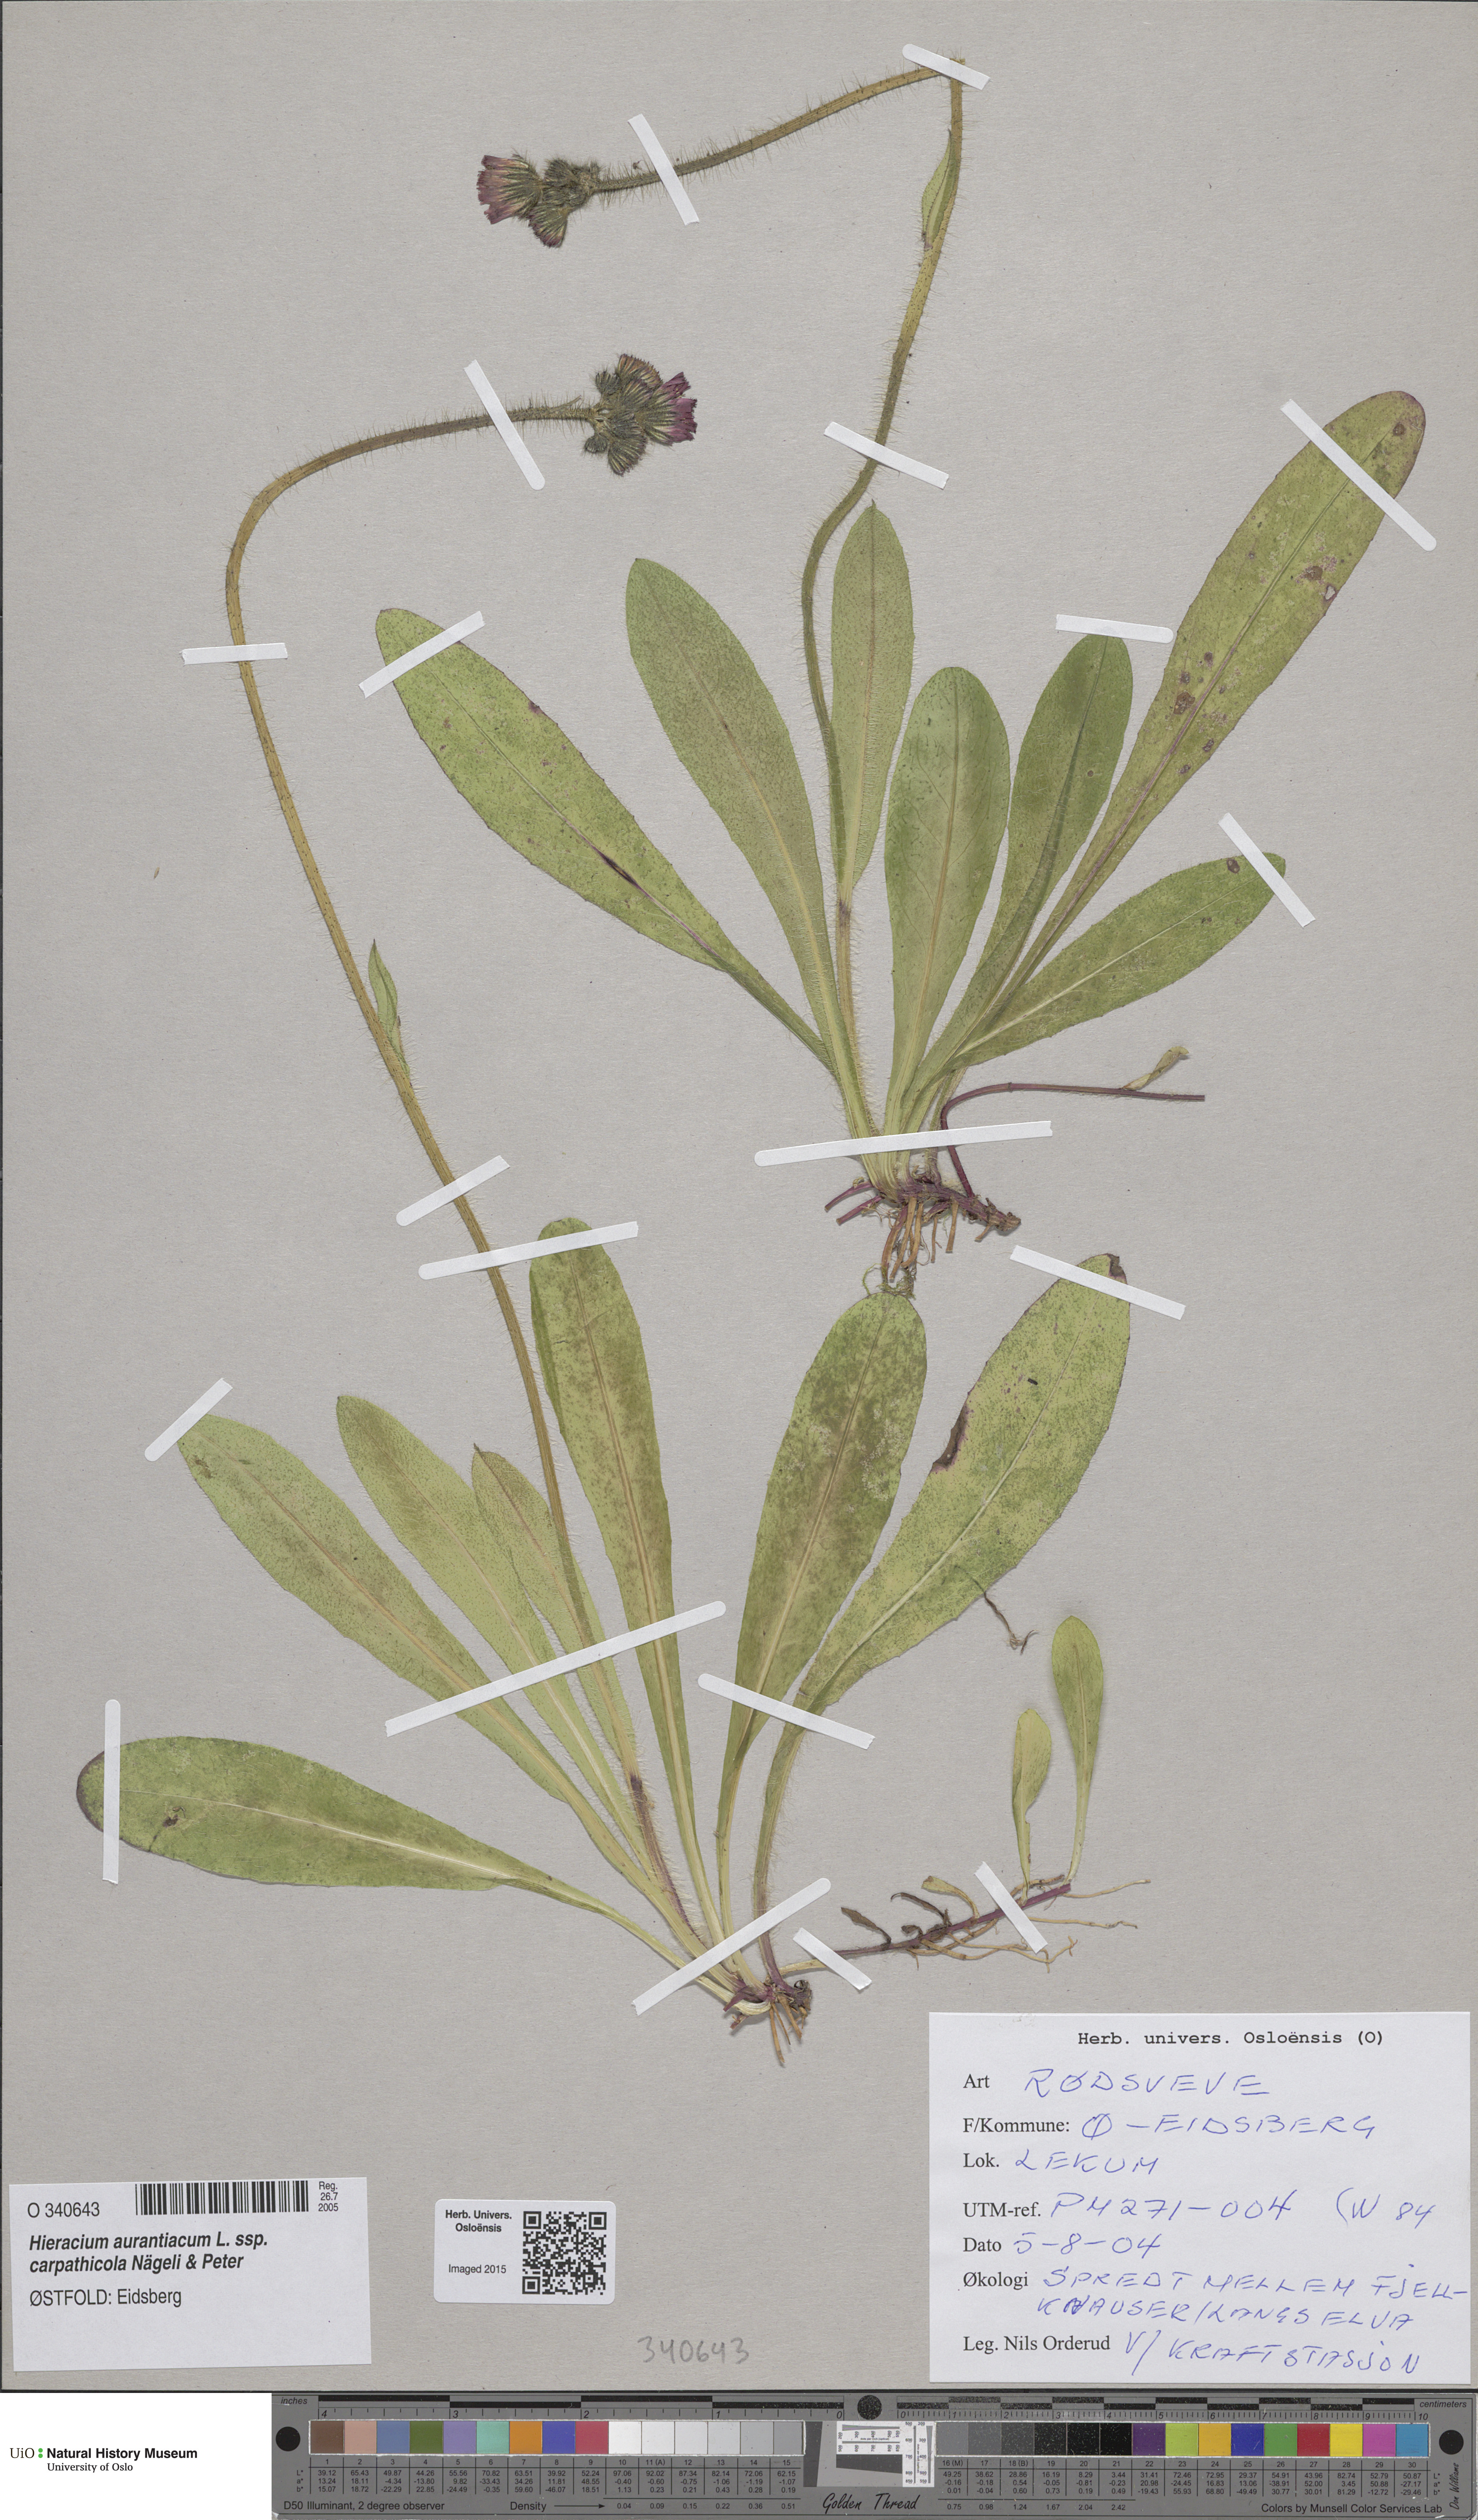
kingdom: Plantae
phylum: Tracheophyta
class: Magnoliopsida
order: Asterales
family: Asteraceae
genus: Pilosella
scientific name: Pilosella aurantiaca
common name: Fox-and-cubs
